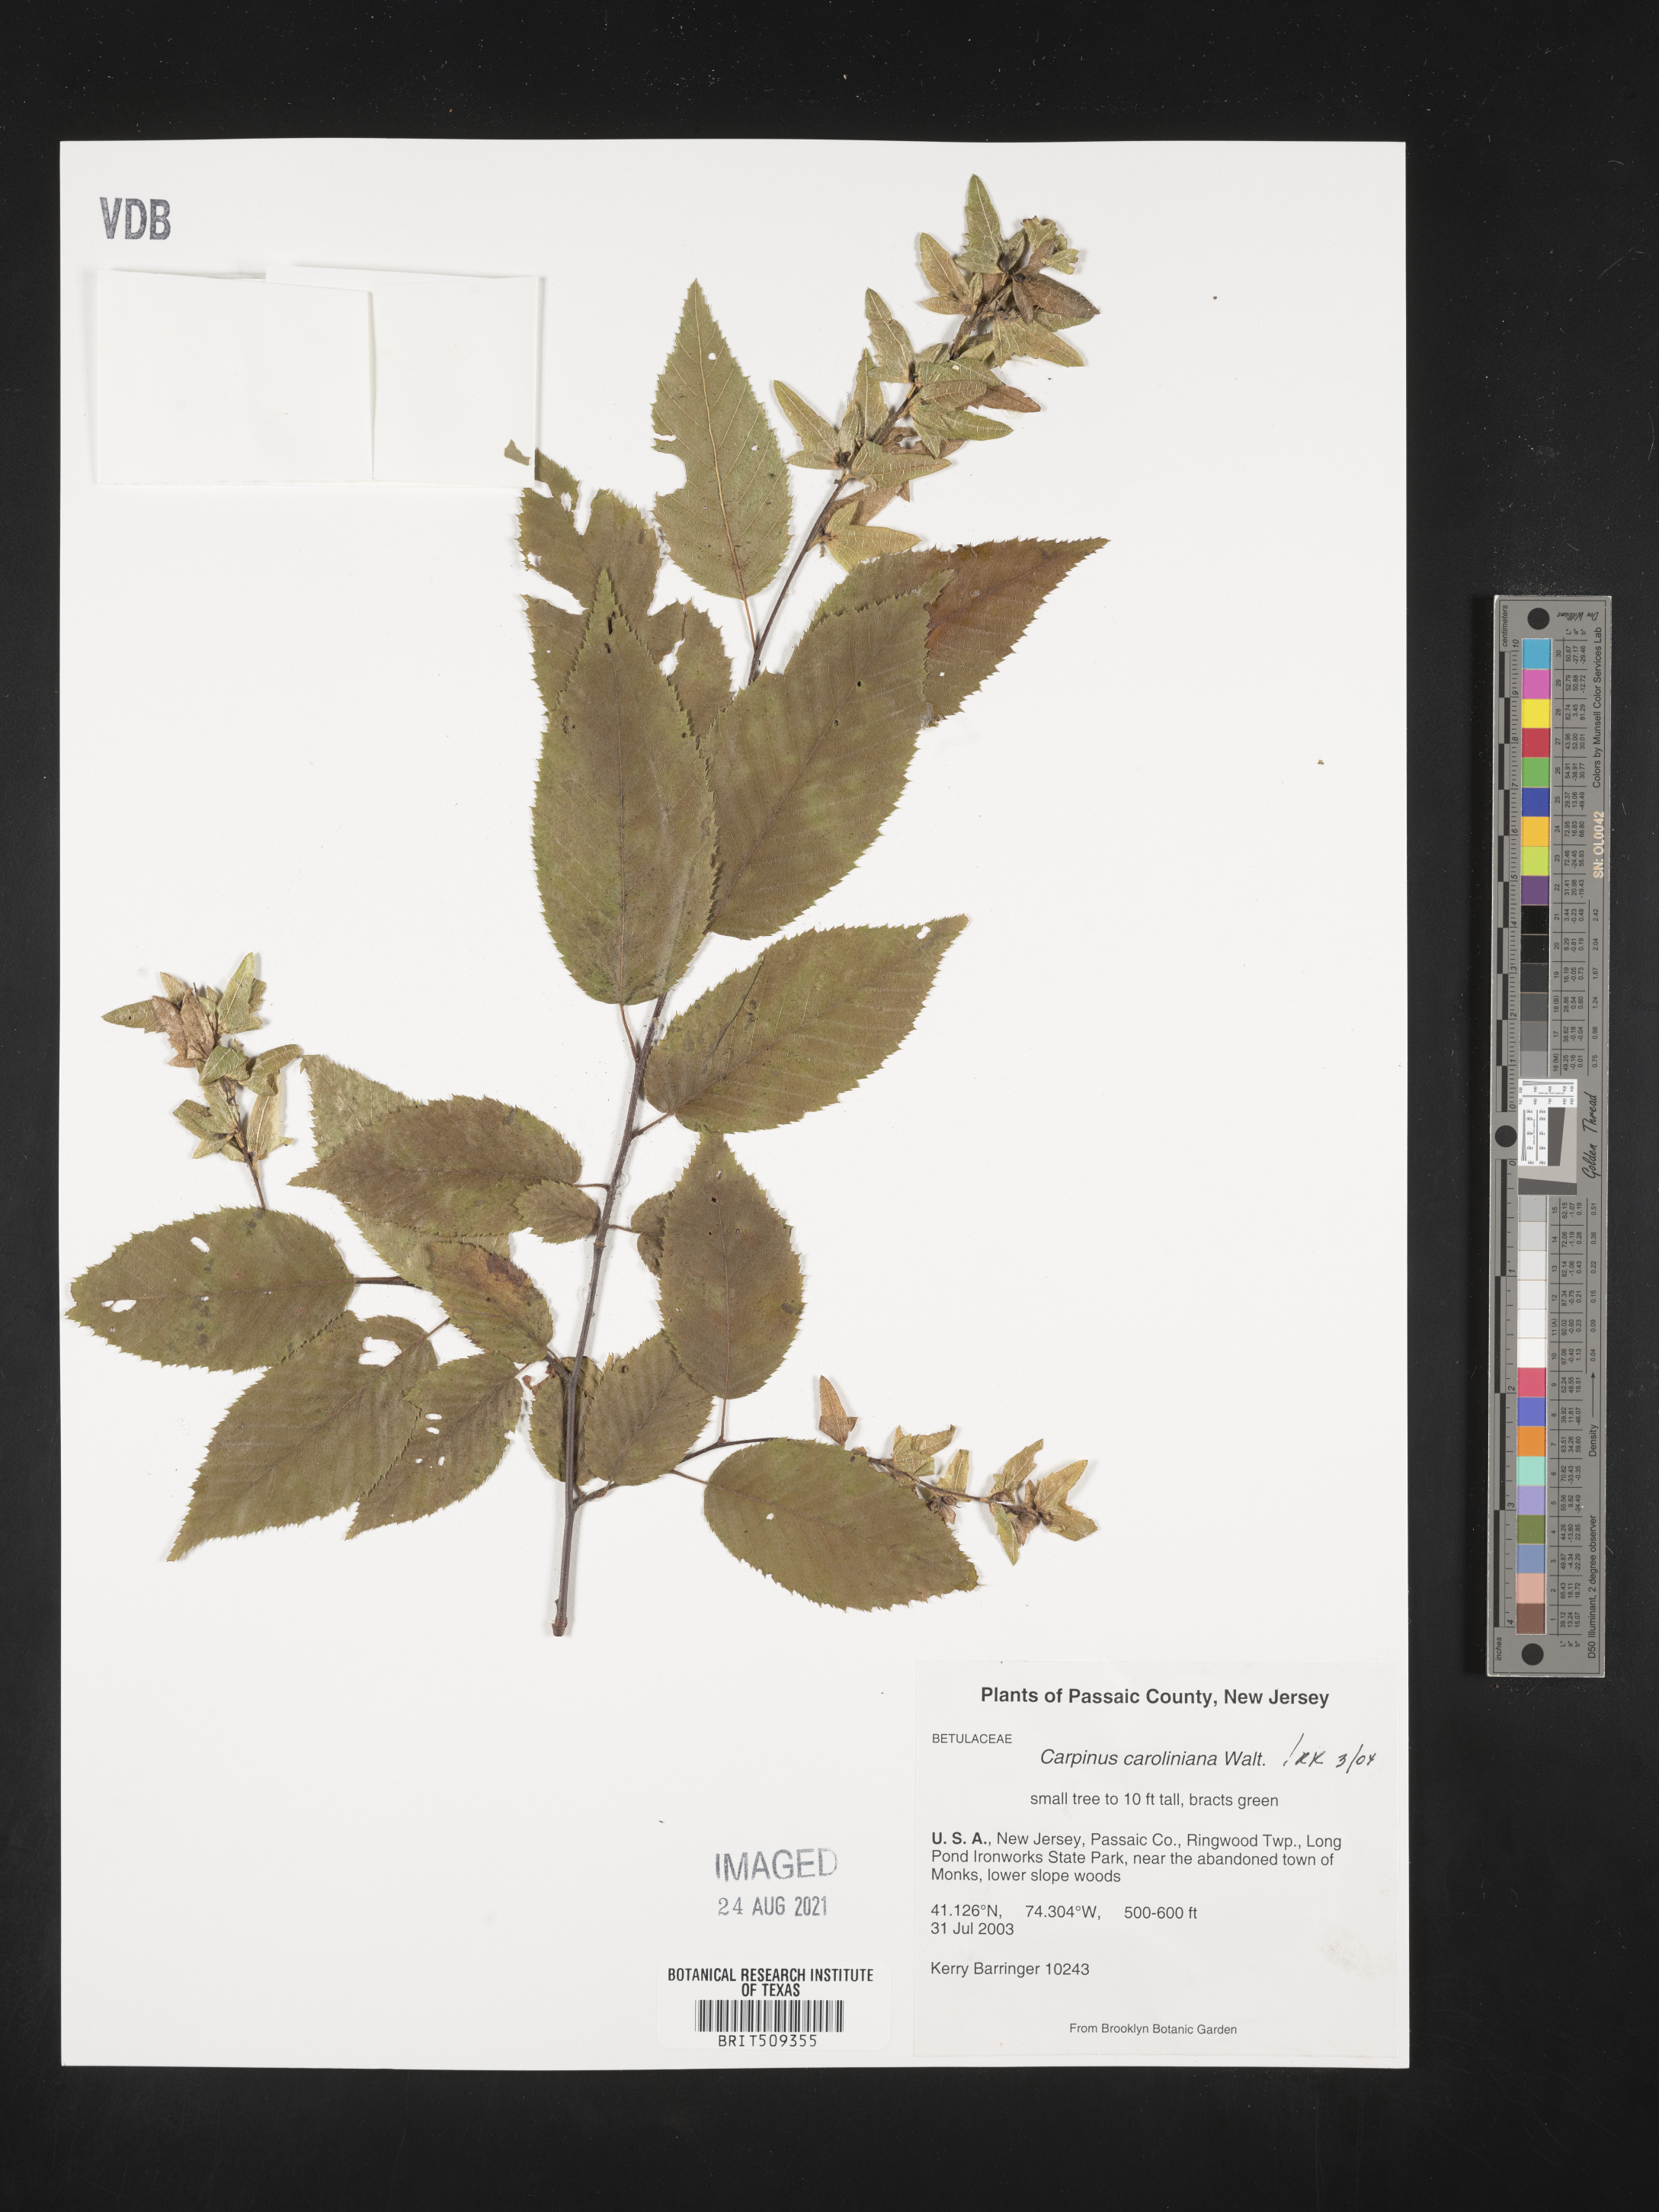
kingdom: Plantae
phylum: Tracheophyta
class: Magnoliopsida
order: Fagales
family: Betulaceae
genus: Carpinus
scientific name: Carpinus caroliniana
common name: American hornbeam
